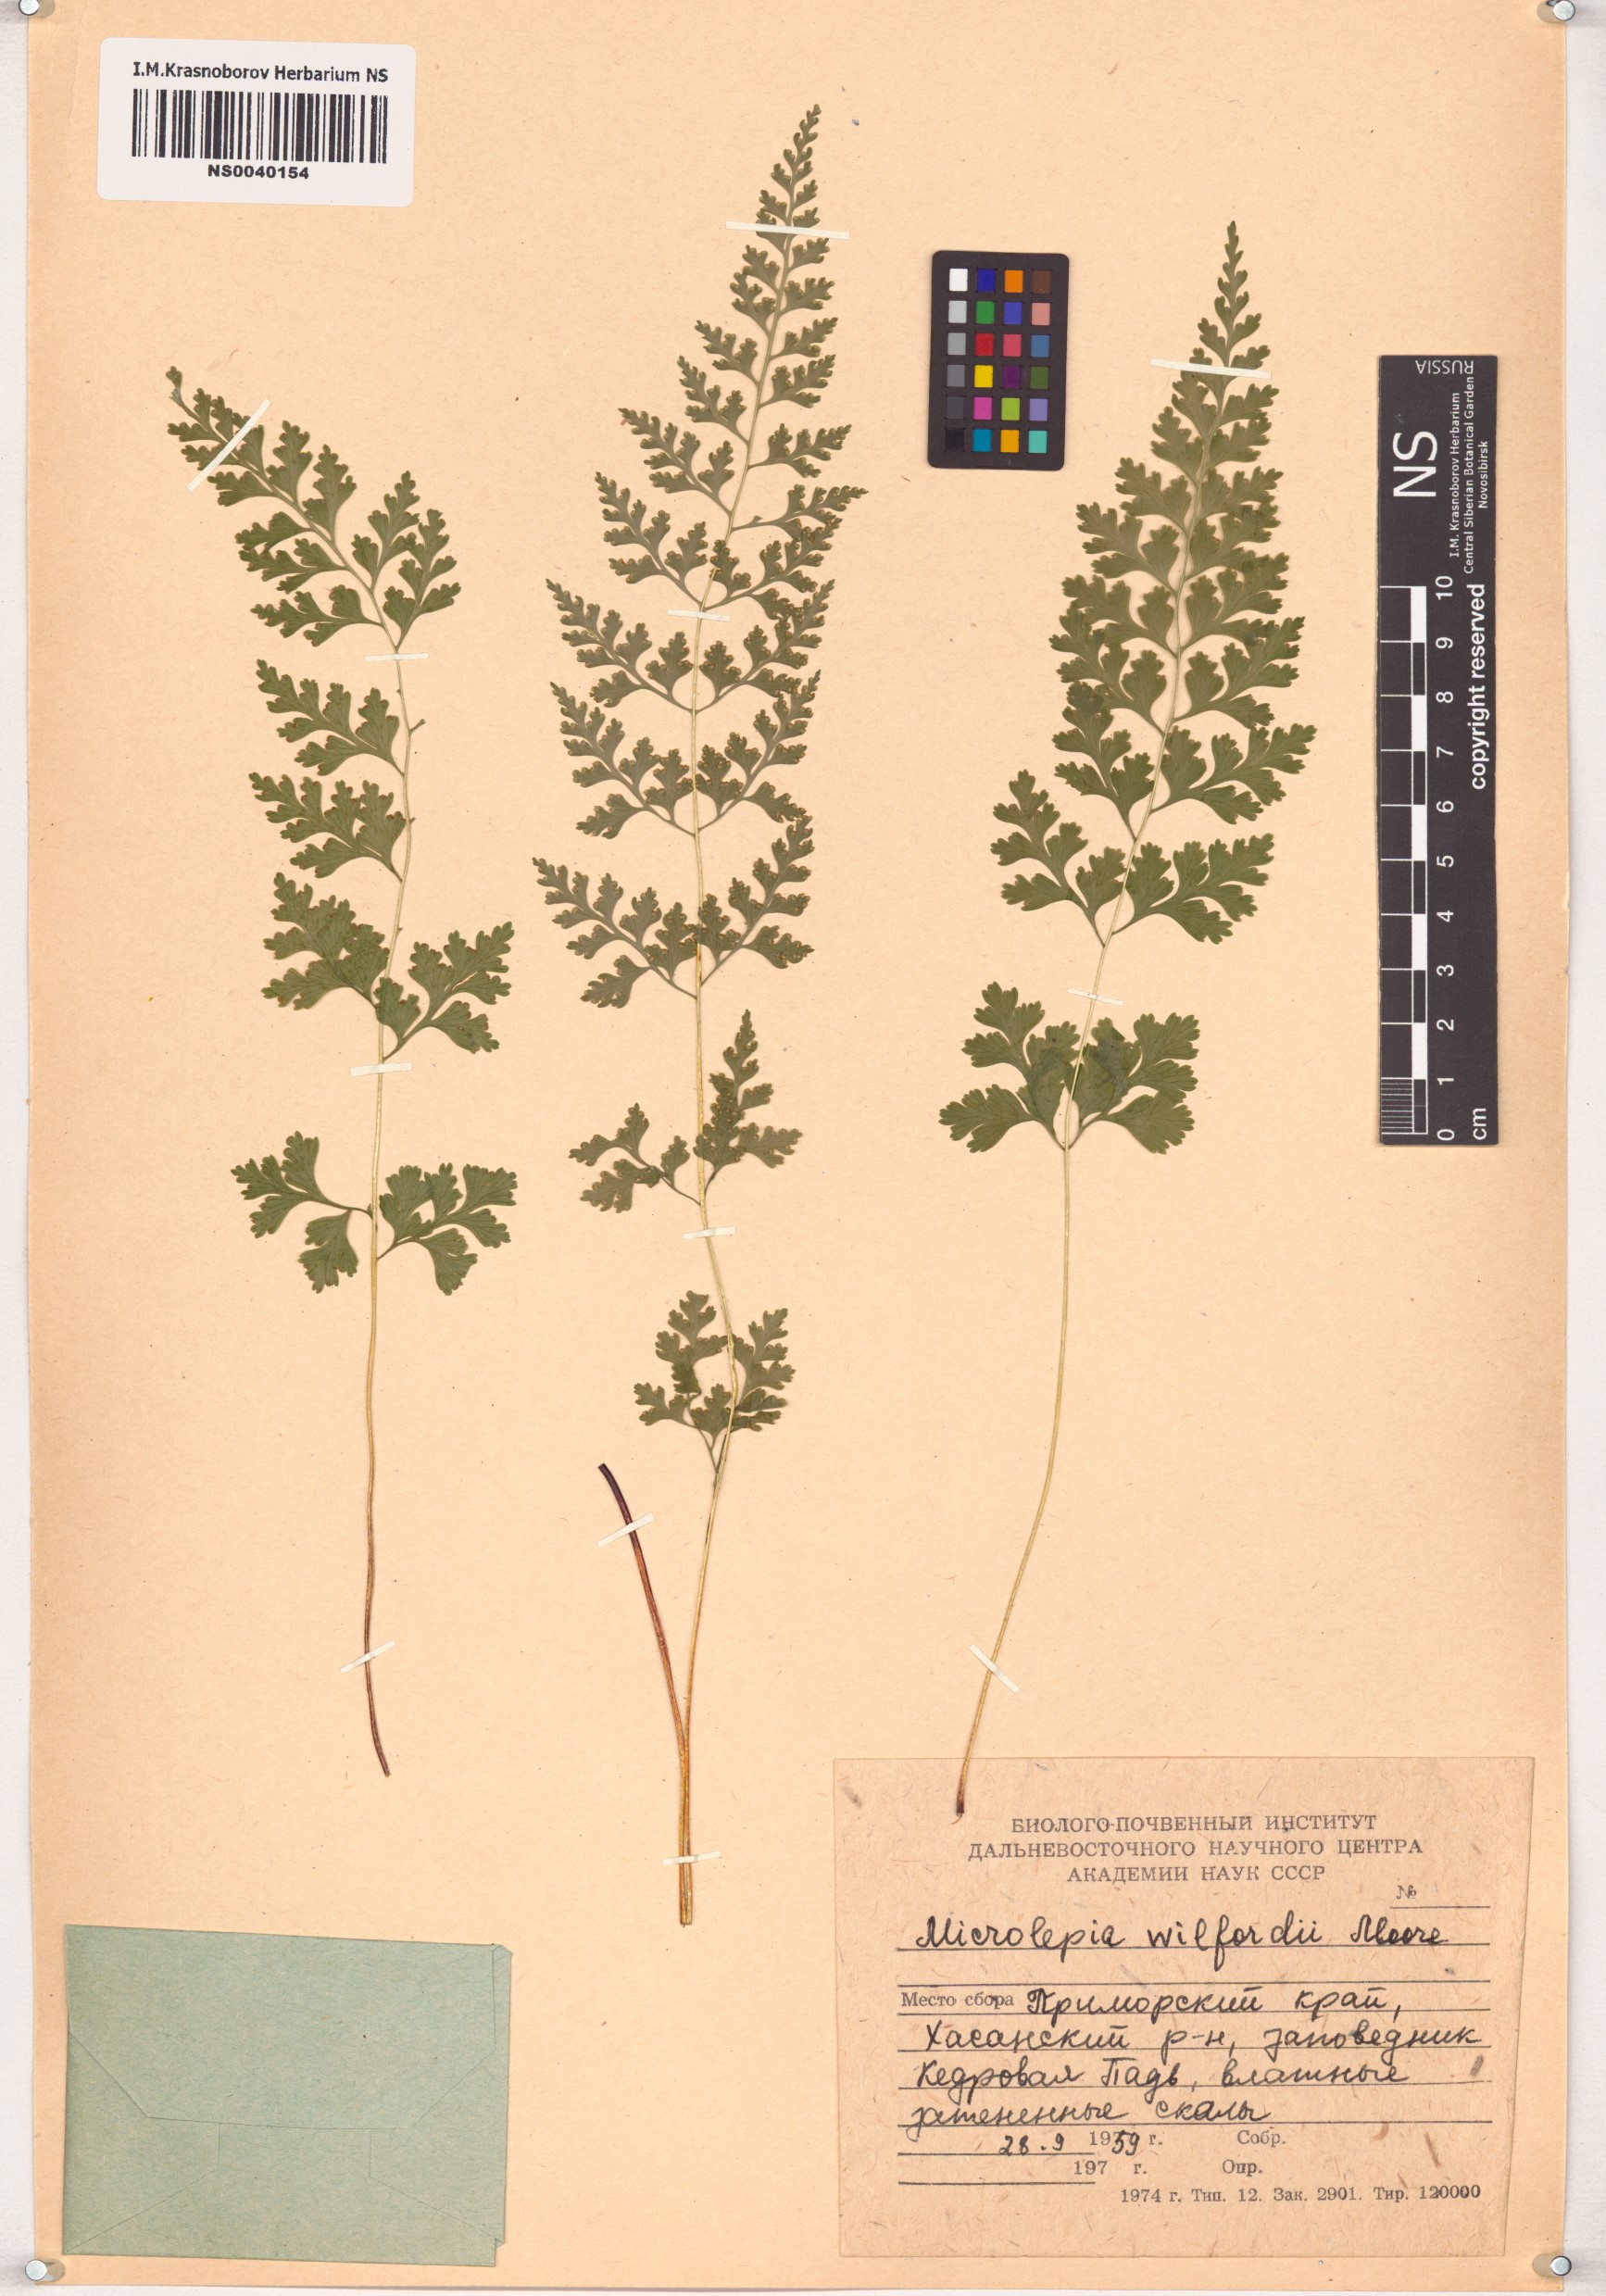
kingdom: Plantae
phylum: Tracheophyta
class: Polypodiopsida
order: Polypodiales
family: Dennstaedtiaceae
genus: Sitobolium
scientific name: Sitobolium wilfordii
